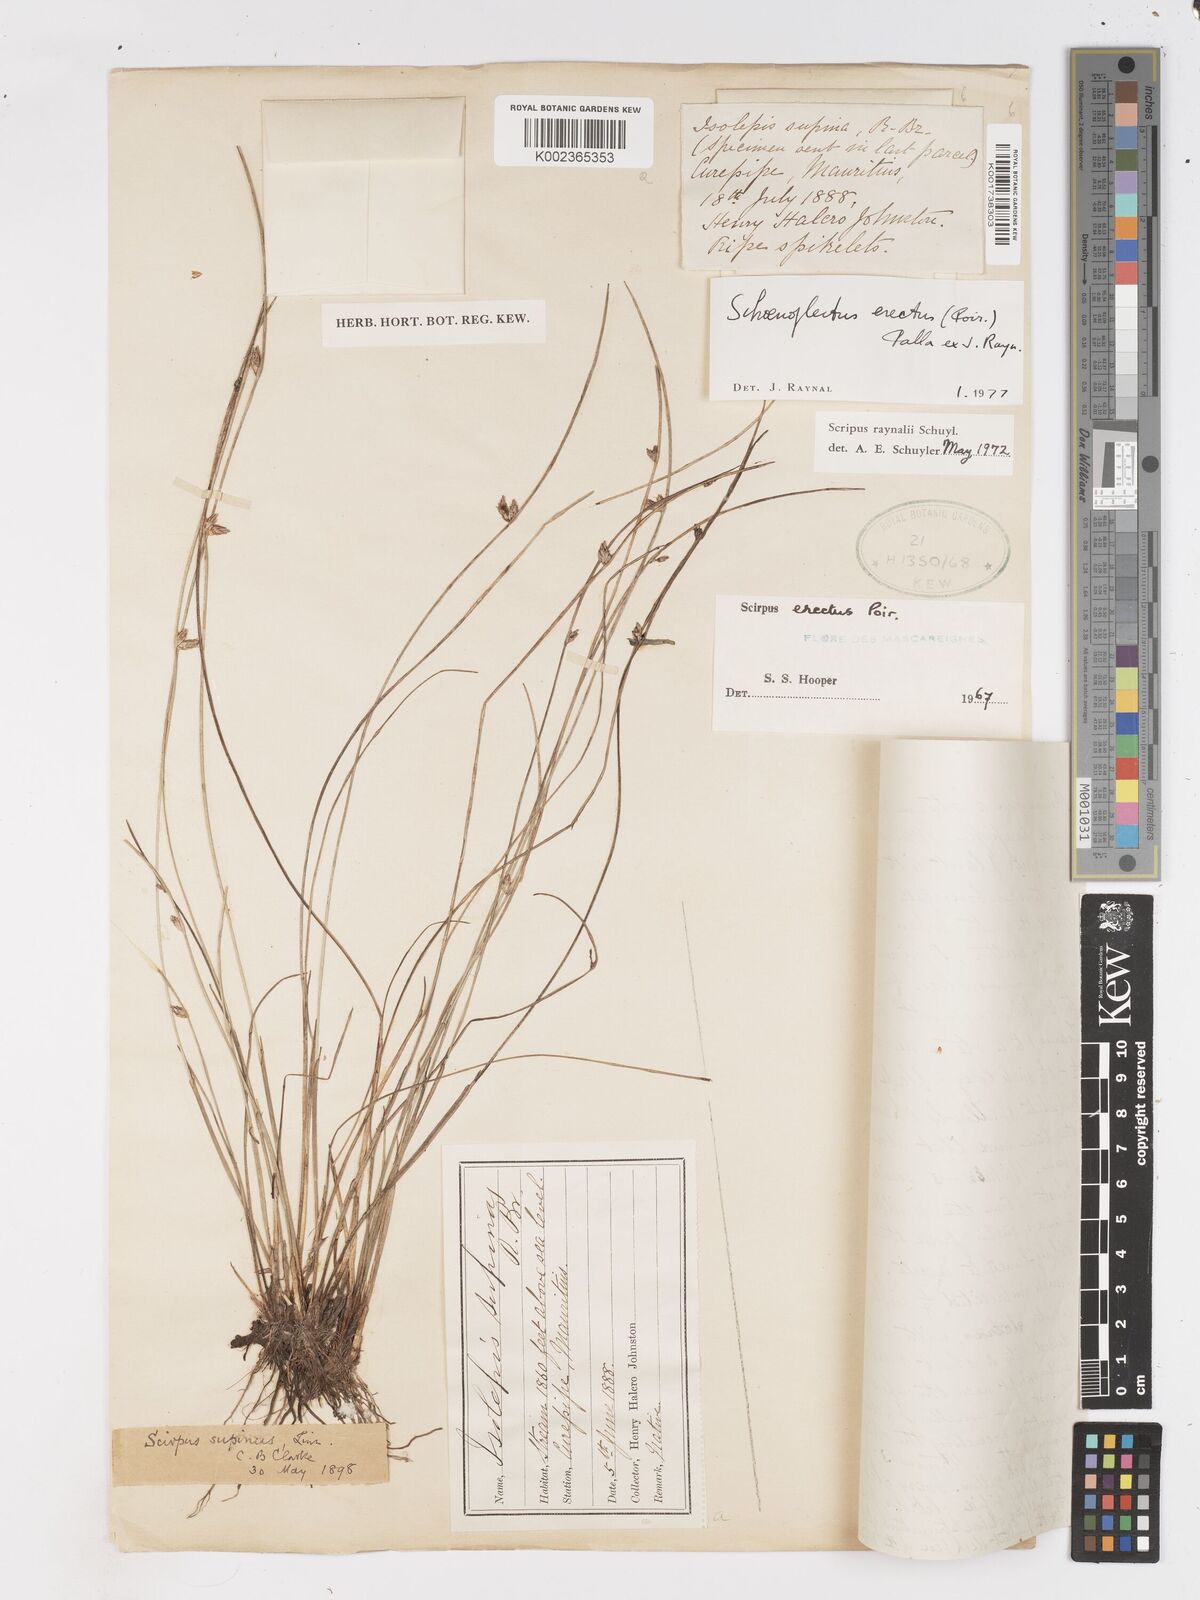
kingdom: Plantae
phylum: Tracheophyta
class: Liliopsida
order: Poales
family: Cyperaceae
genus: Schoenoplectiella
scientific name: Schoenoplectiella erecta
